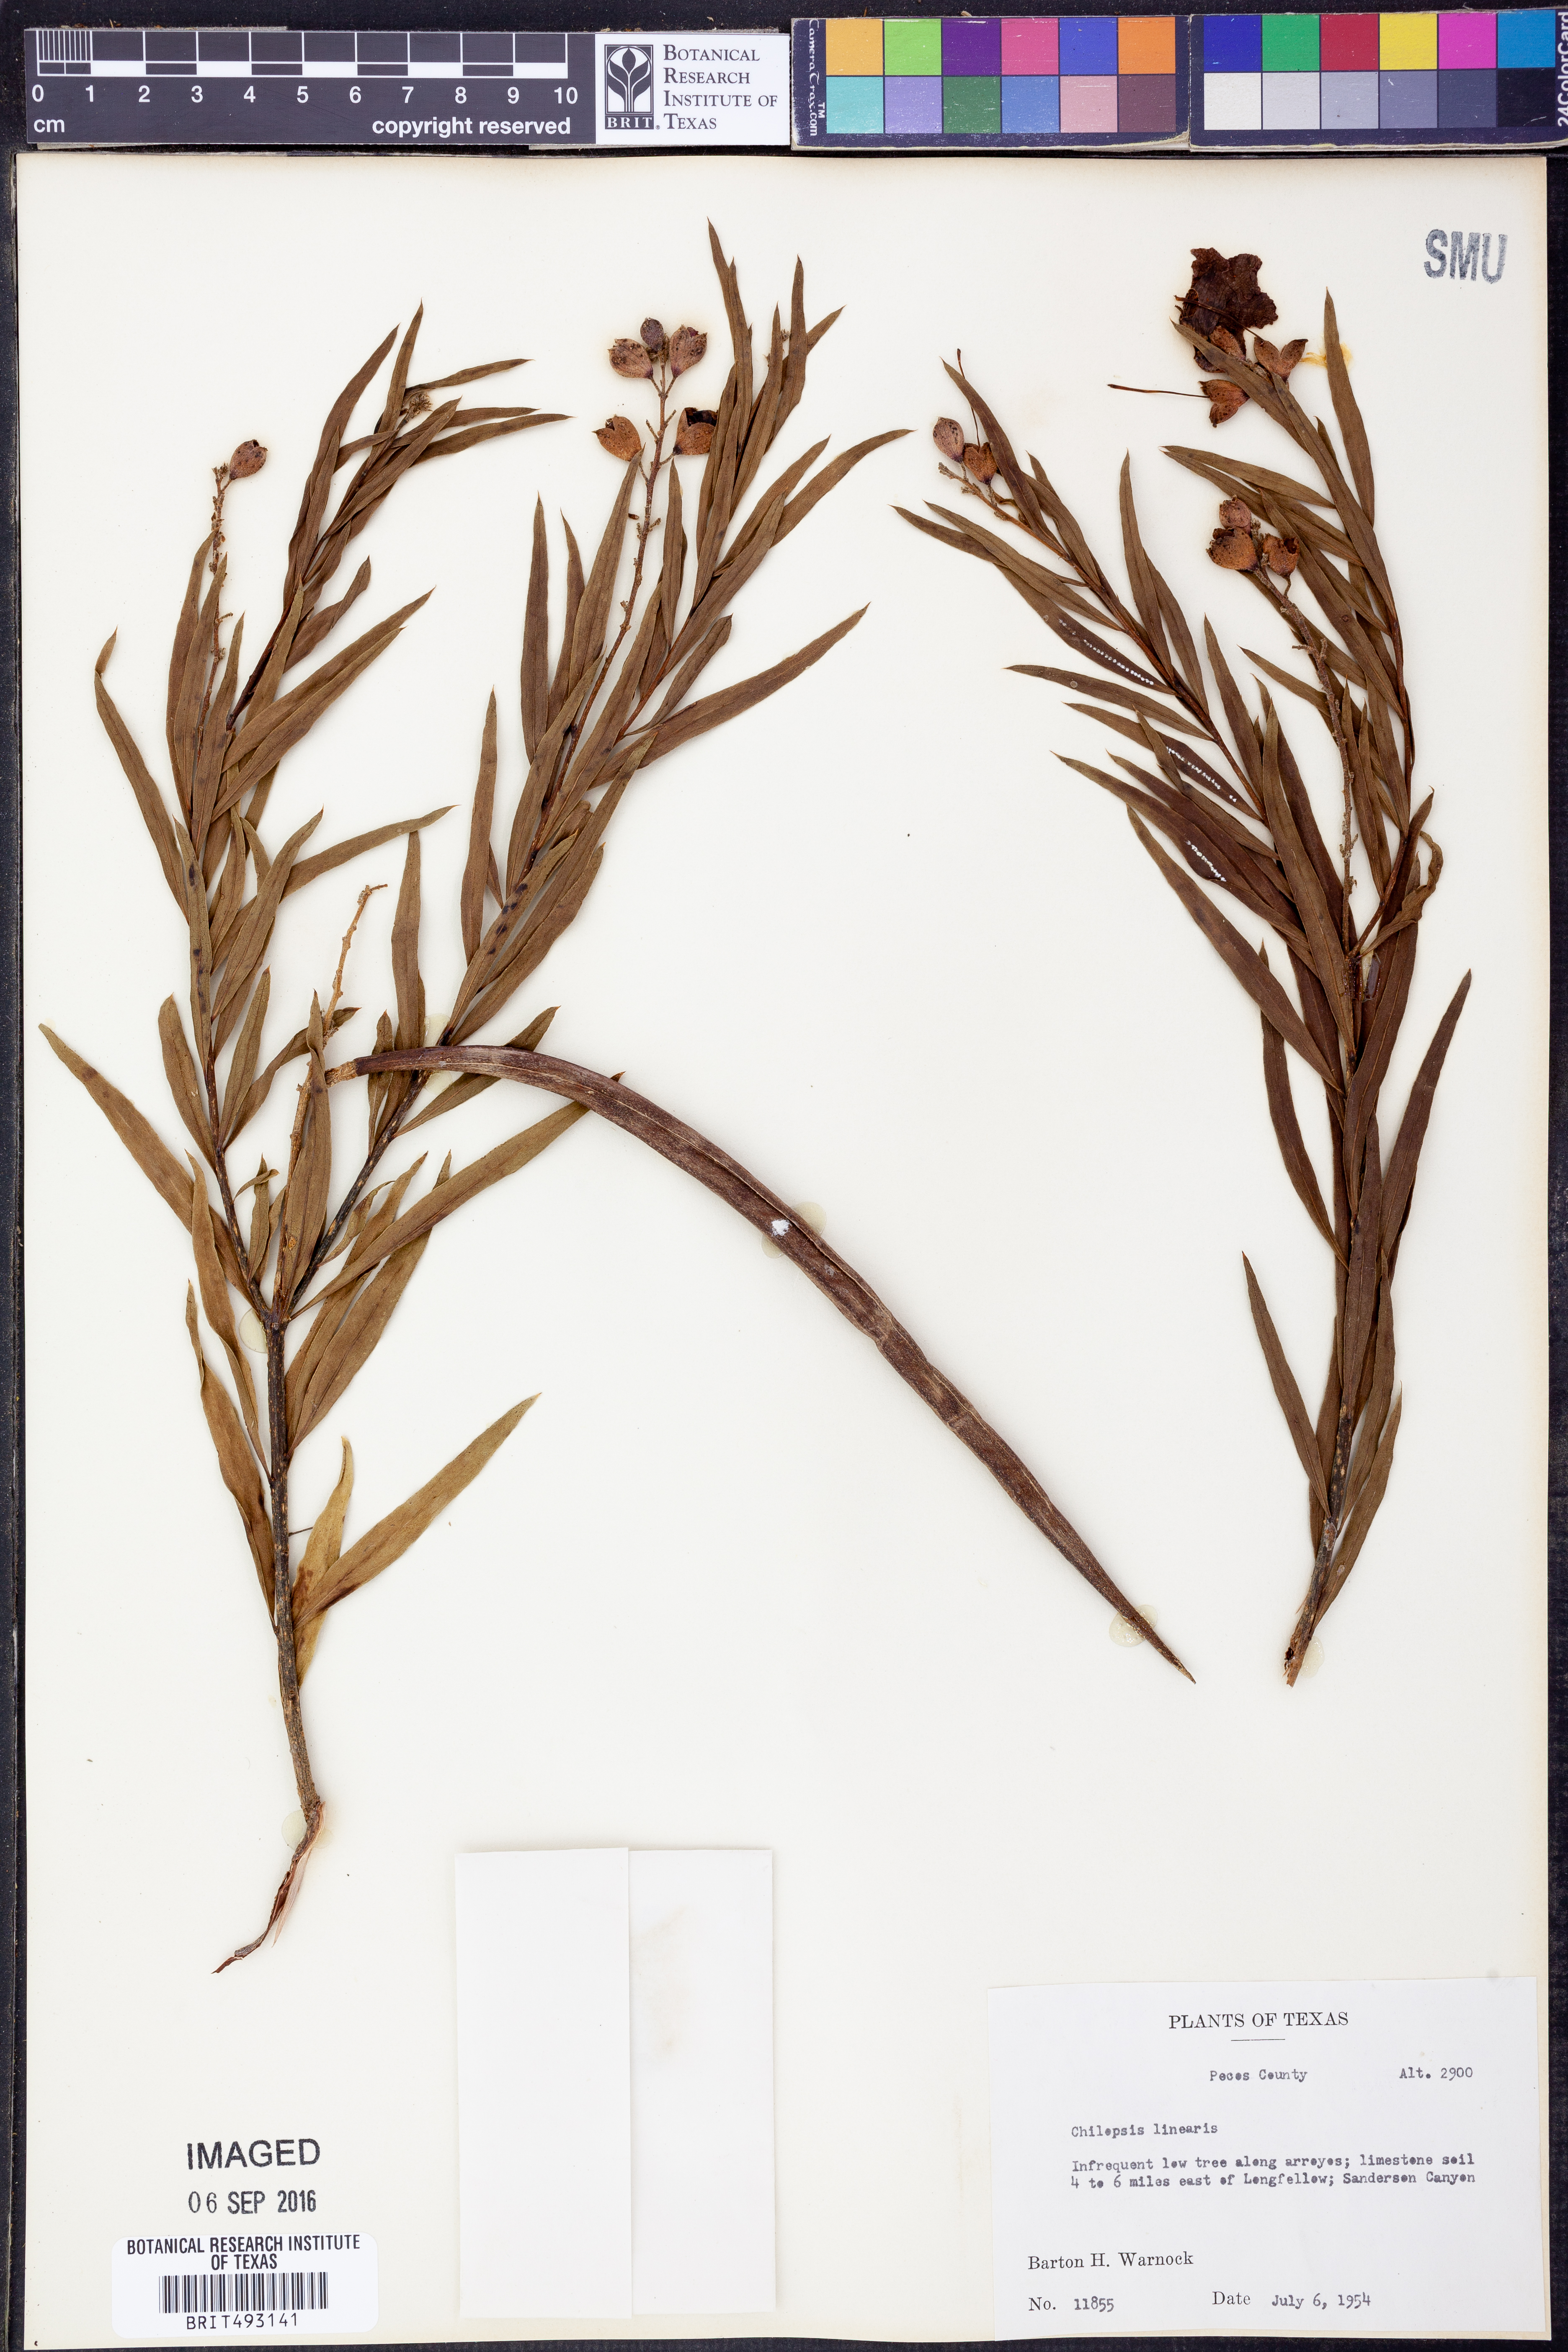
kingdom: Plantae
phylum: Tracheophyta
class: Magnoliopsida
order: Lamiales
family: Bignoniaceae
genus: Chilopsis
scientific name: Chilopsis linearis
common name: Desert-willow
